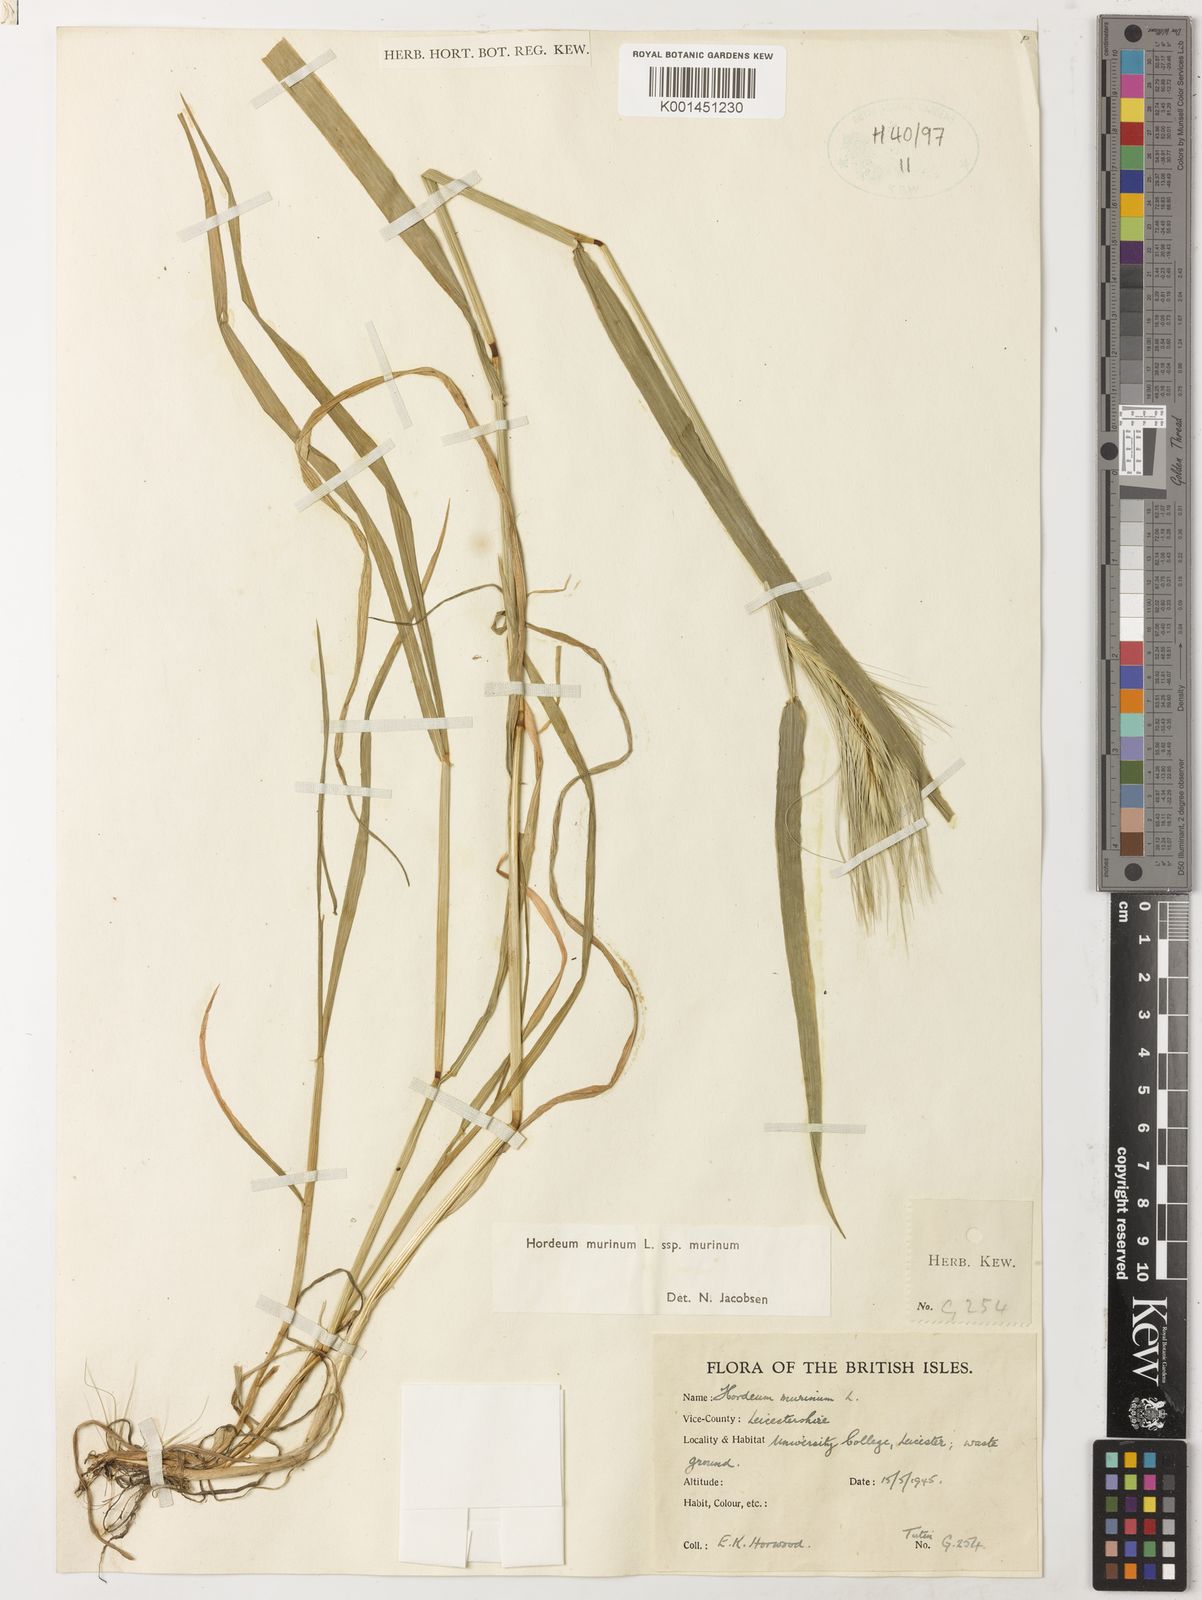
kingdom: Plantae
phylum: Tracheophyta
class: Liliopsida
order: Poales
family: Poaceae
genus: Hordeum
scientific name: Hordeum murinum
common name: Wall barley
